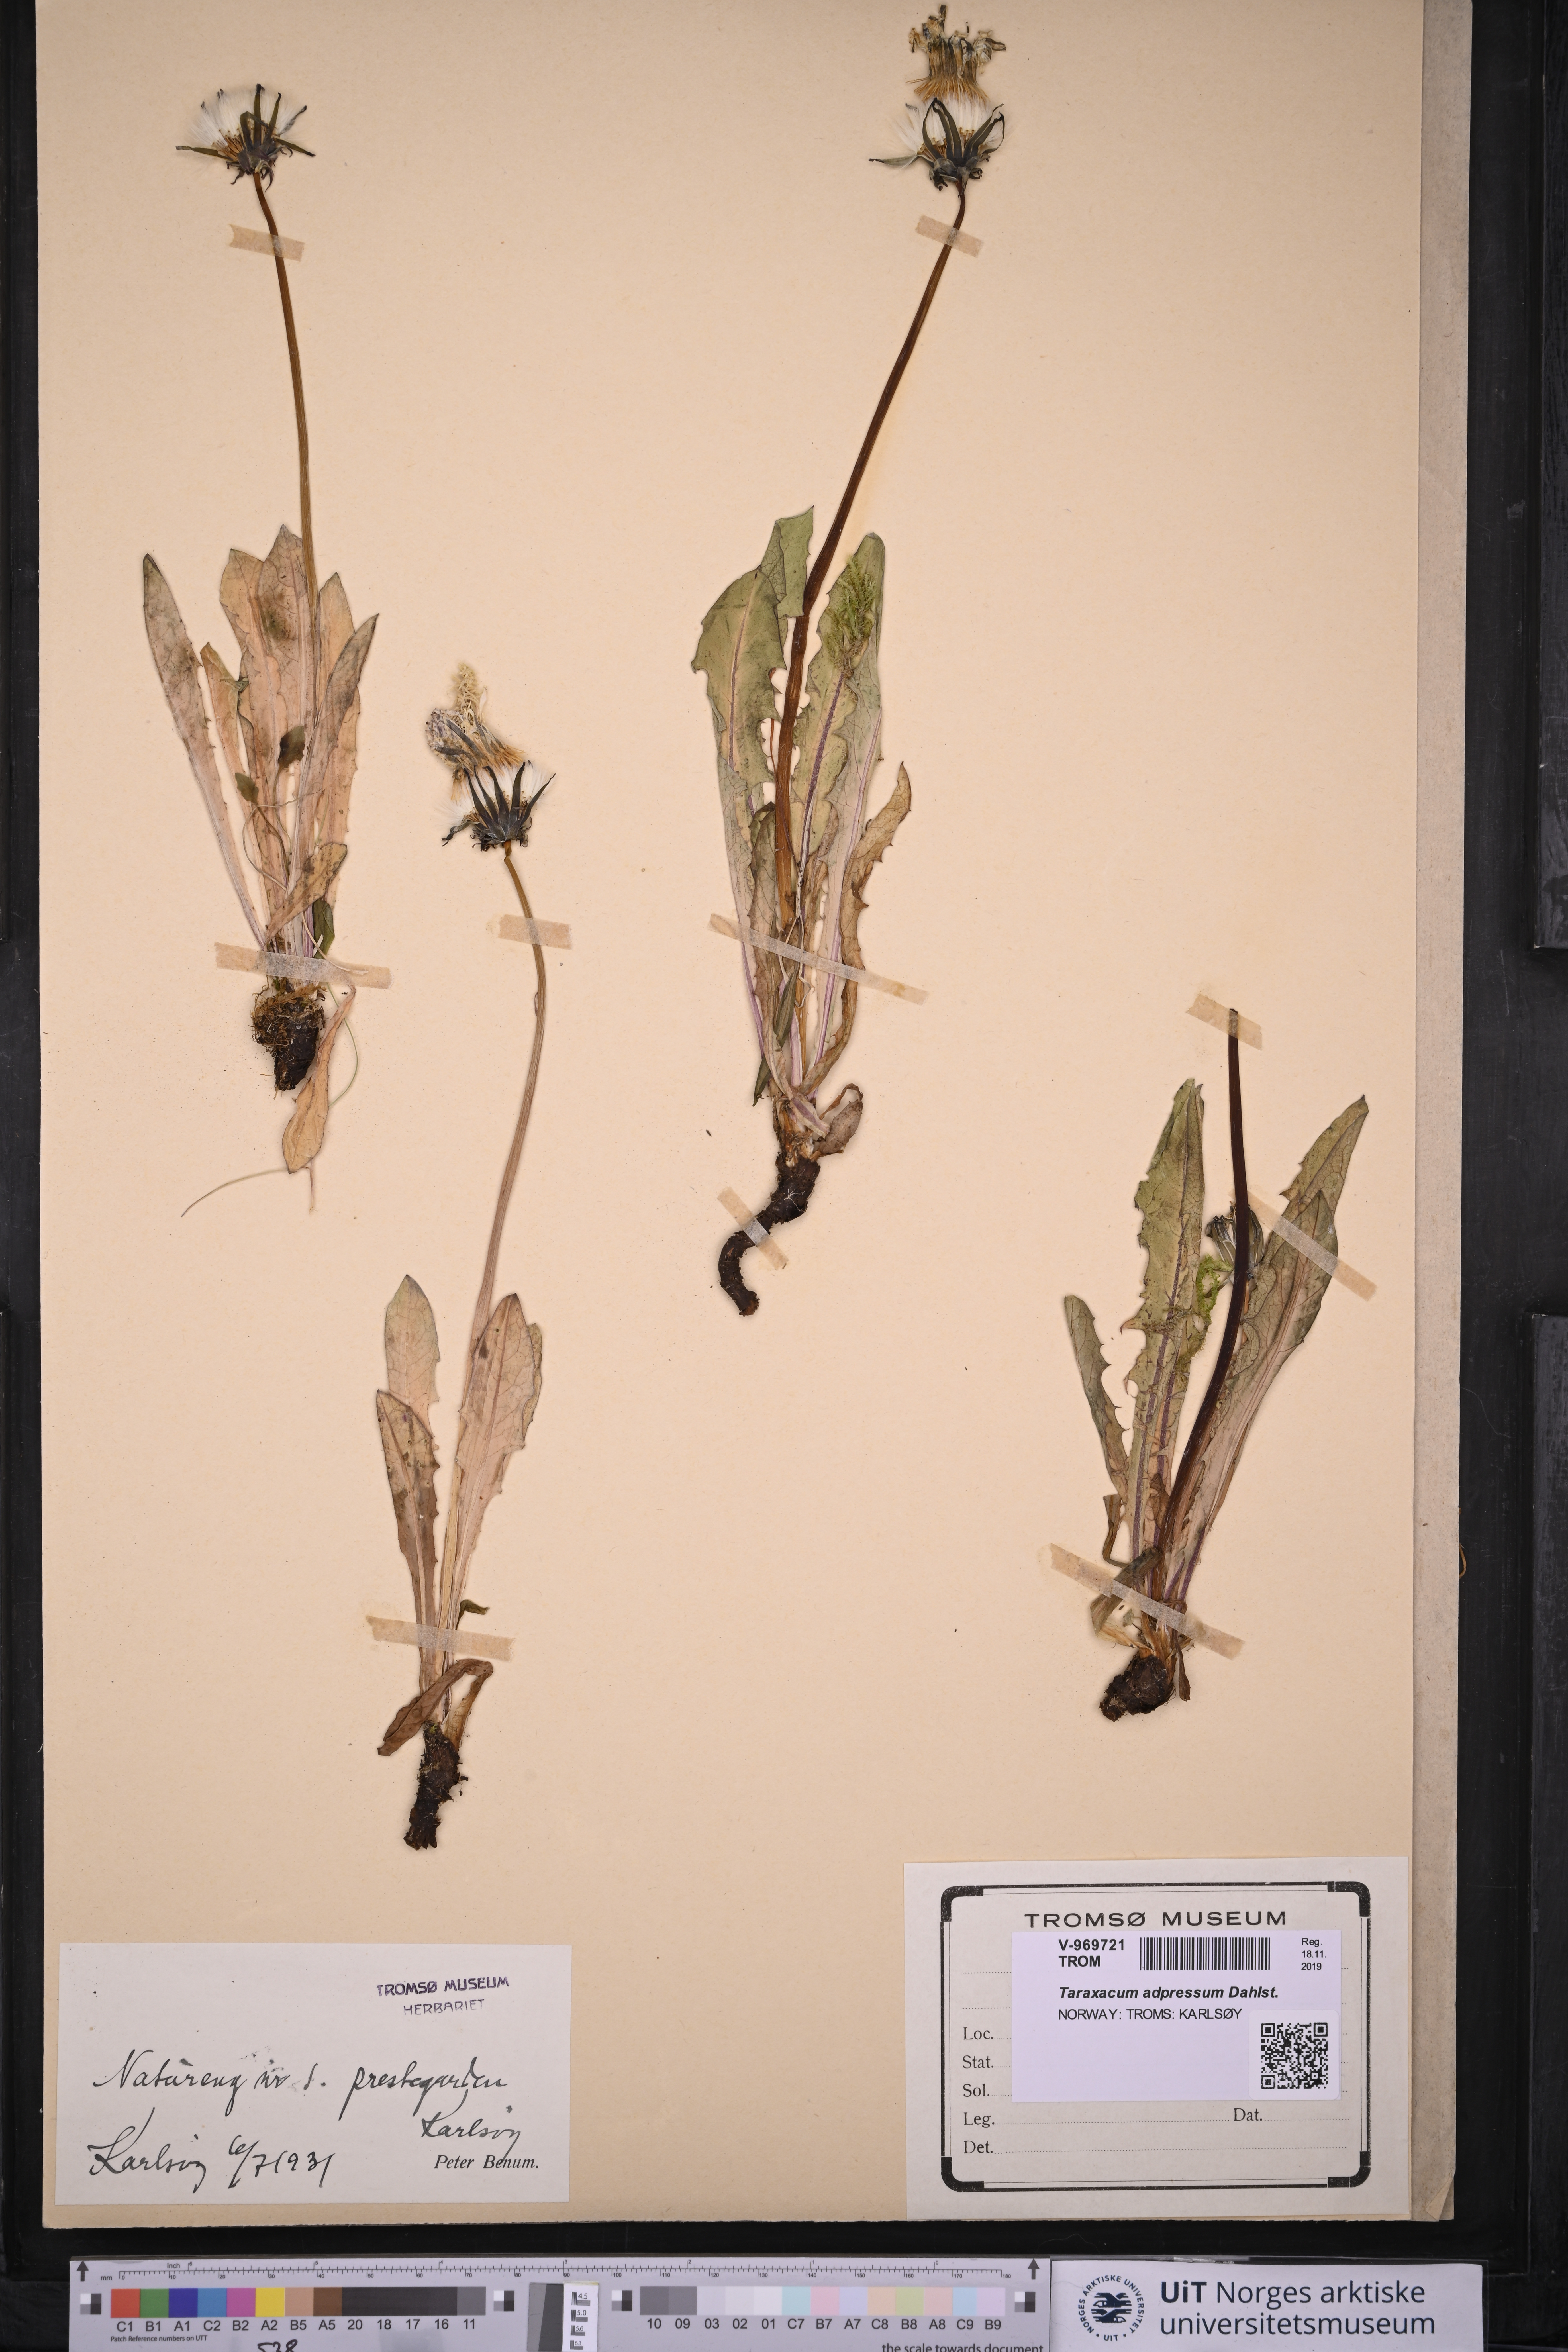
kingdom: Plantae
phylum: Tracheophyta
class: Magnoliopsida
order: Asterales
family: Asteraceae
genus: Taraxacum
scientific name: Taraxacum adpressum
